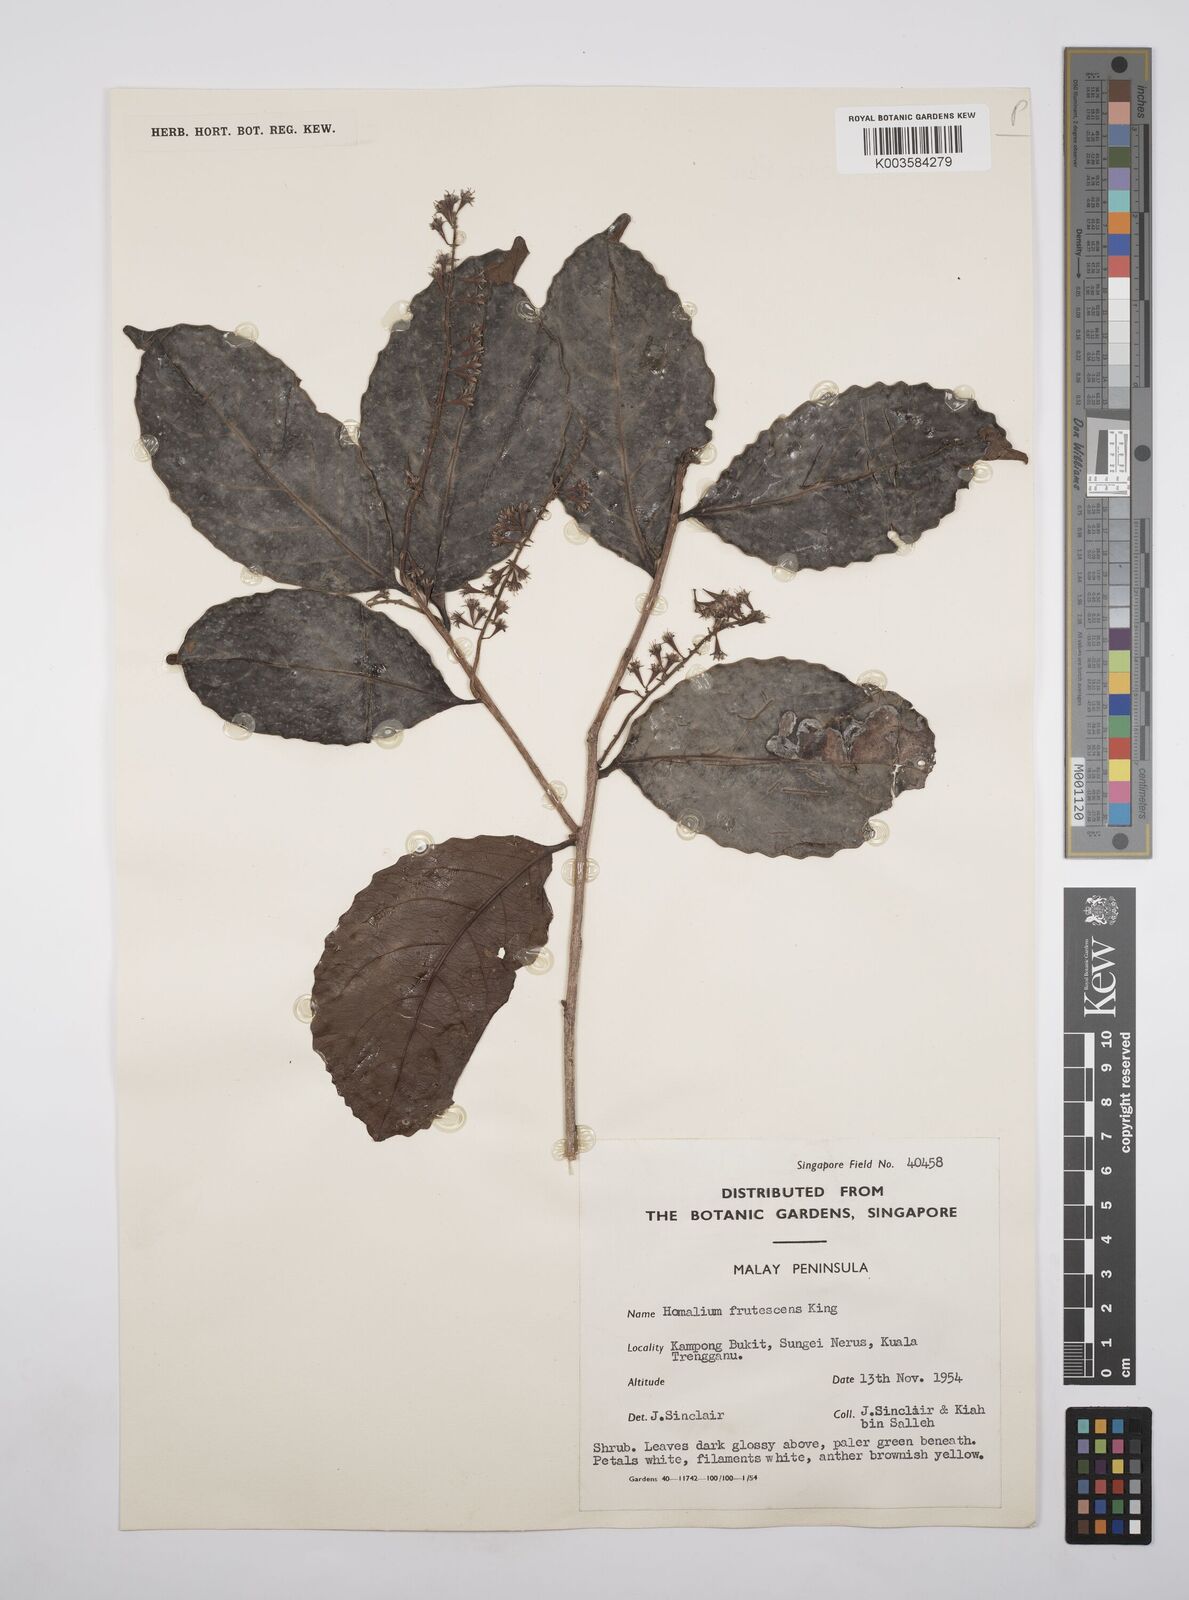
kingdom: Plantae
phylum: Tracheophyta
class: Magnoliopsida
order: Malpighiales
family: Salicaceae
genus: Homalium
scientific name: Homalium caryophyllaceum
